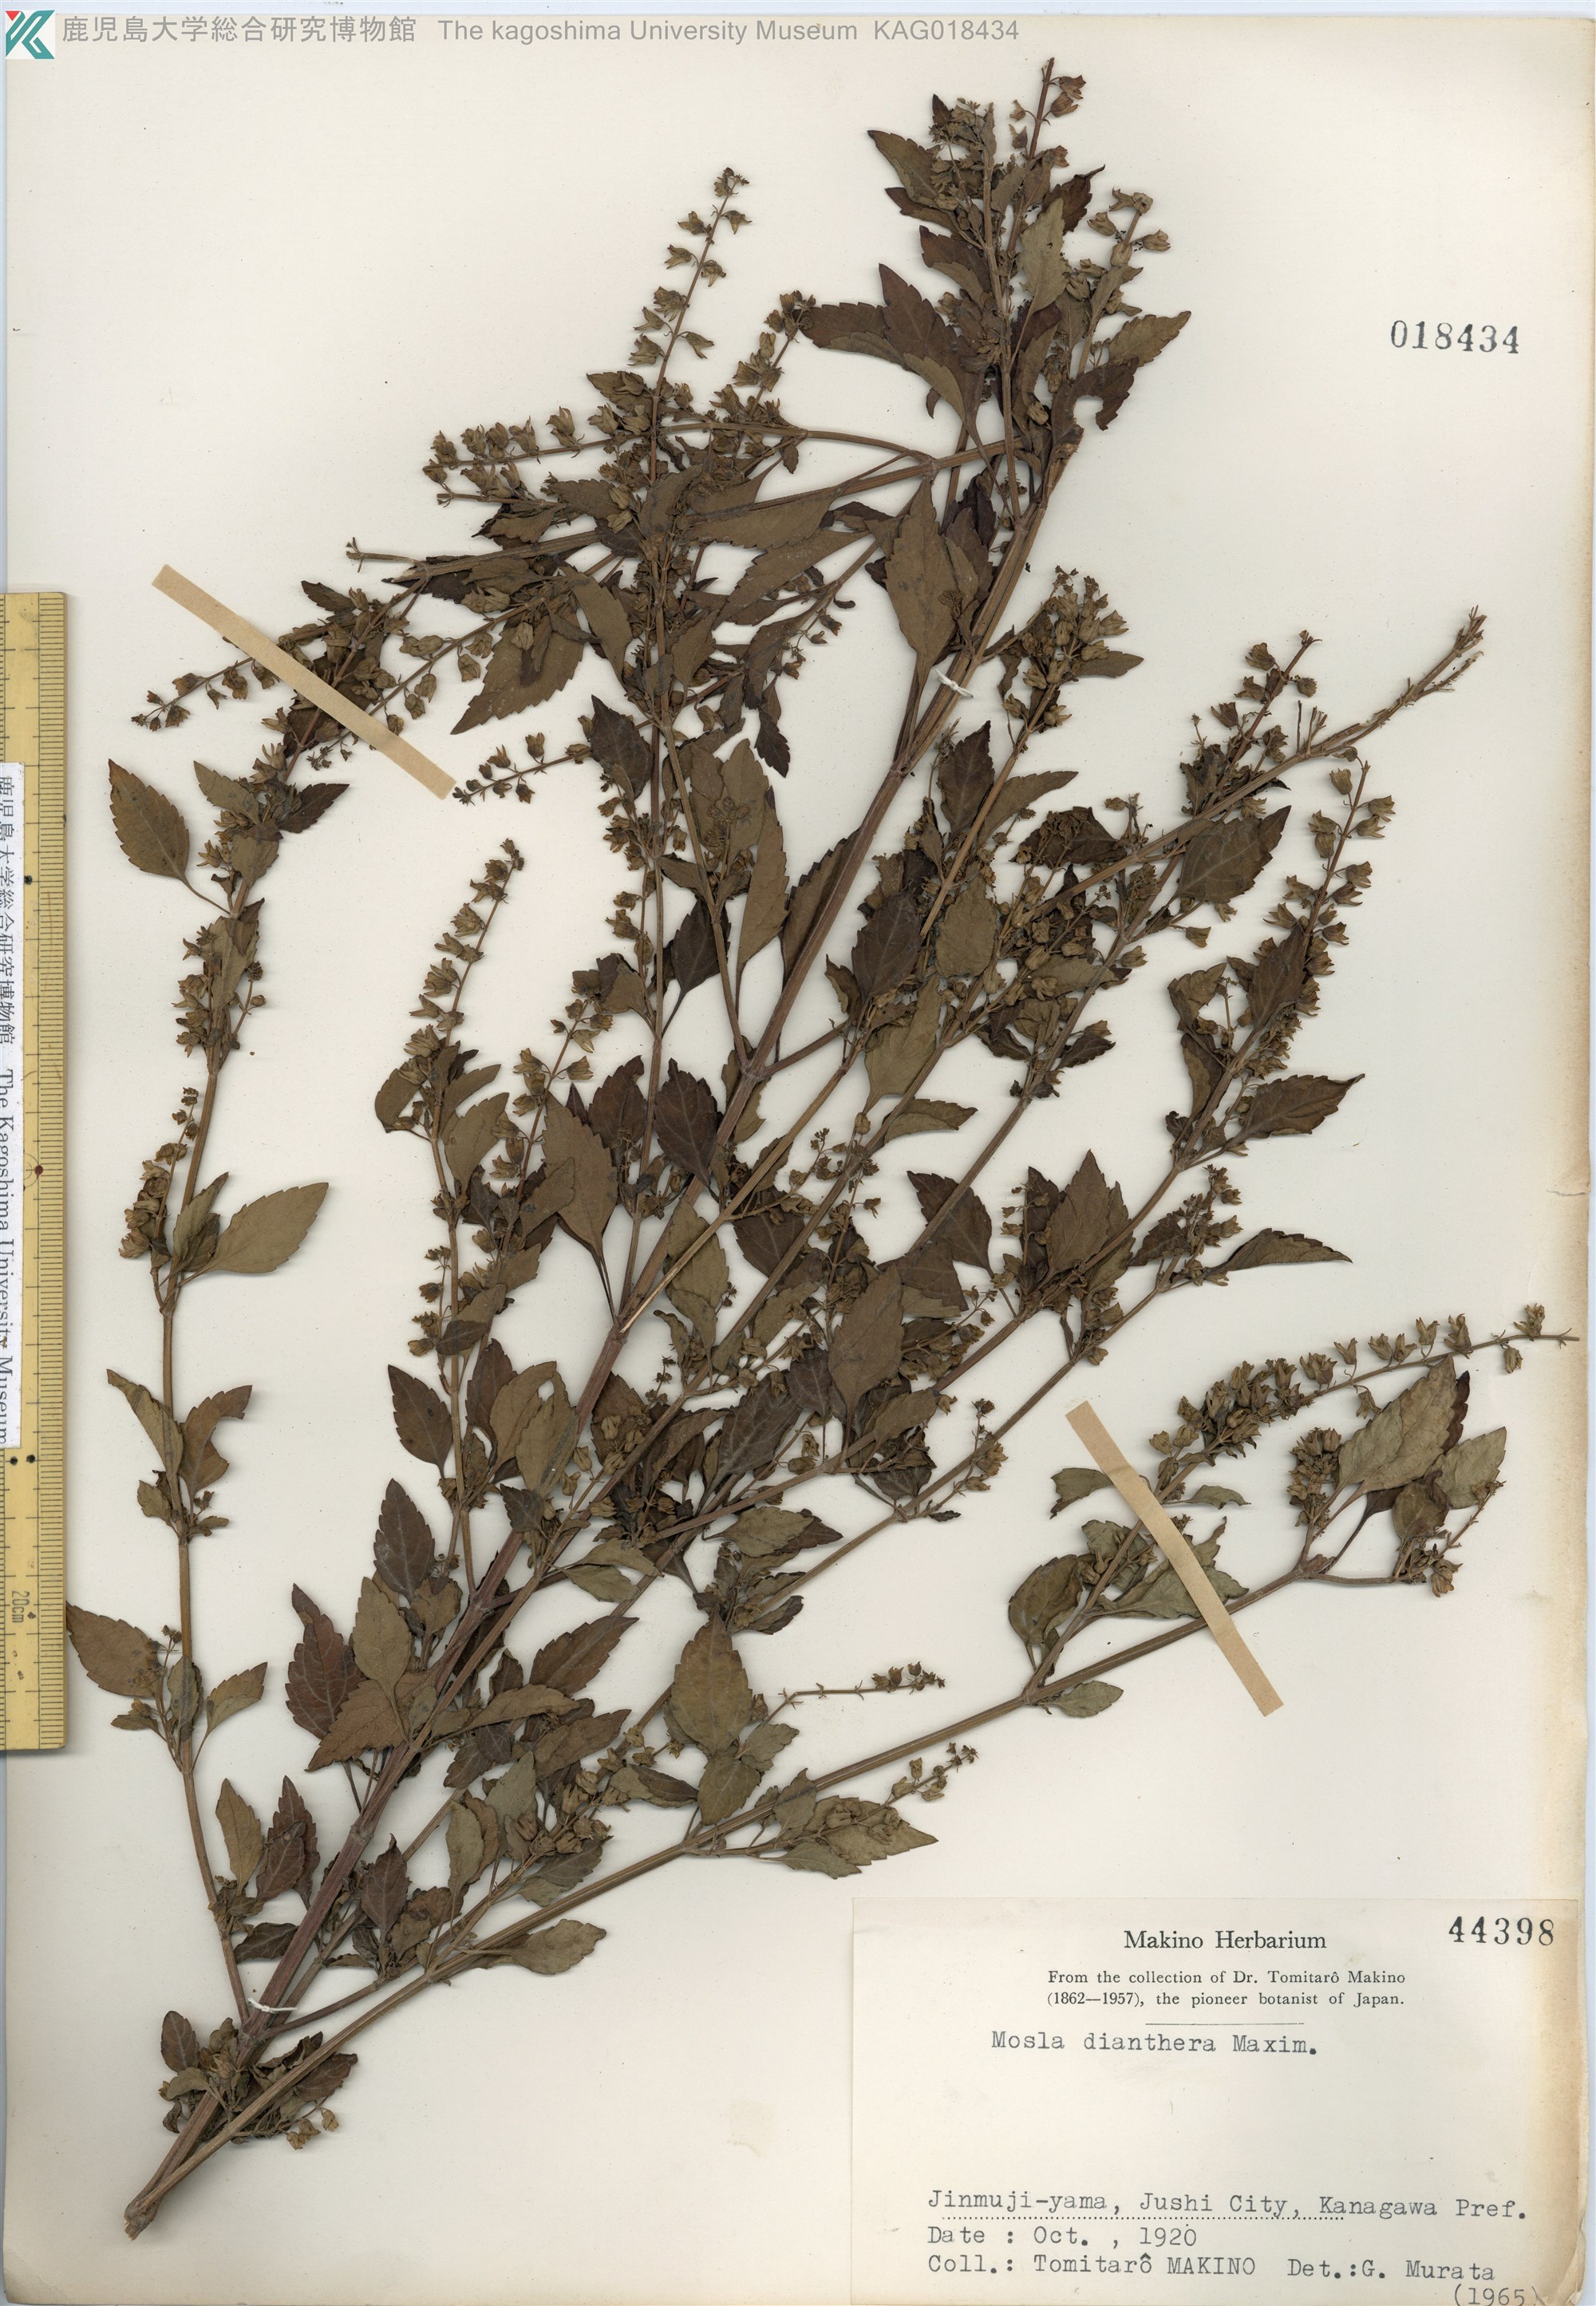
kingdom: Plantae
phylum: Tracheophyta
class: Magnoliopsida
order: Lamiales
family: Lamiaceae
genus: Mosla
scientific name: Mosla dianthera
